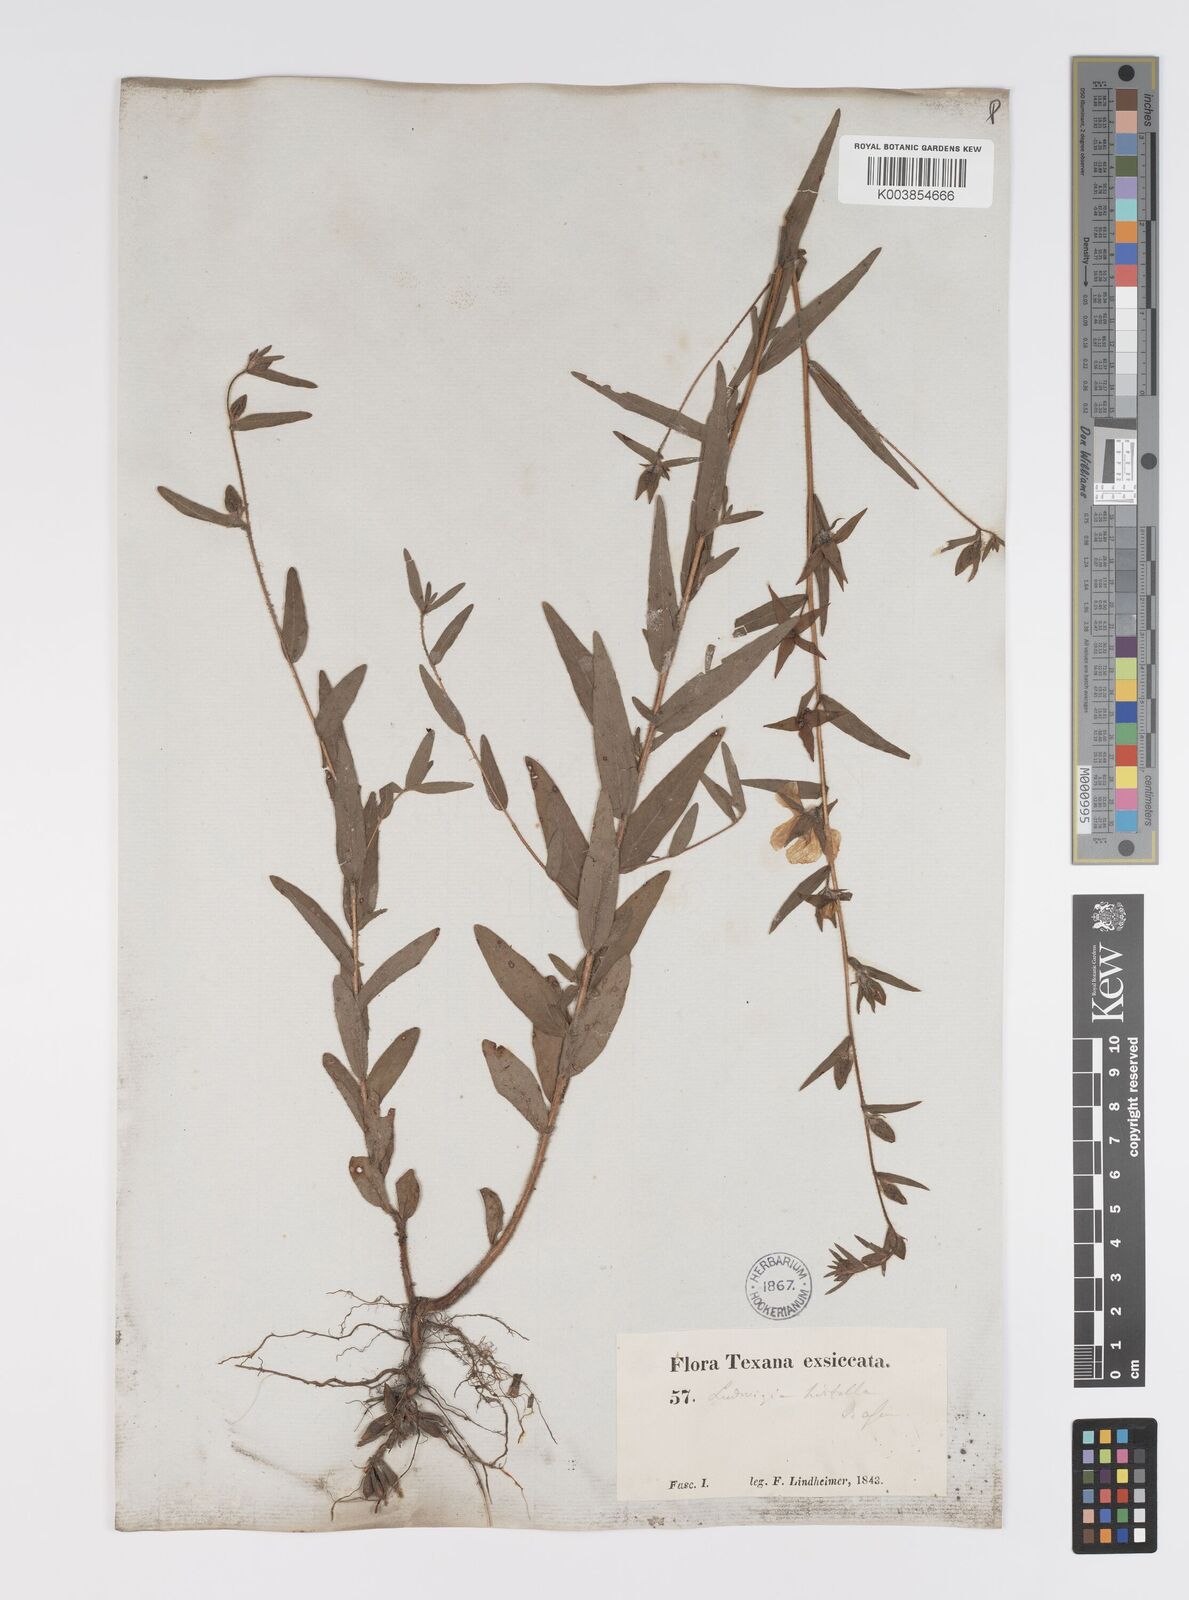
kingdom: Plantae
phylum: Tracheophyta
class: Magnoliopsida
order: Myrtales
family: Onagraceae
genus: Ludwigia
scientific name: Ludwigia hirtella
